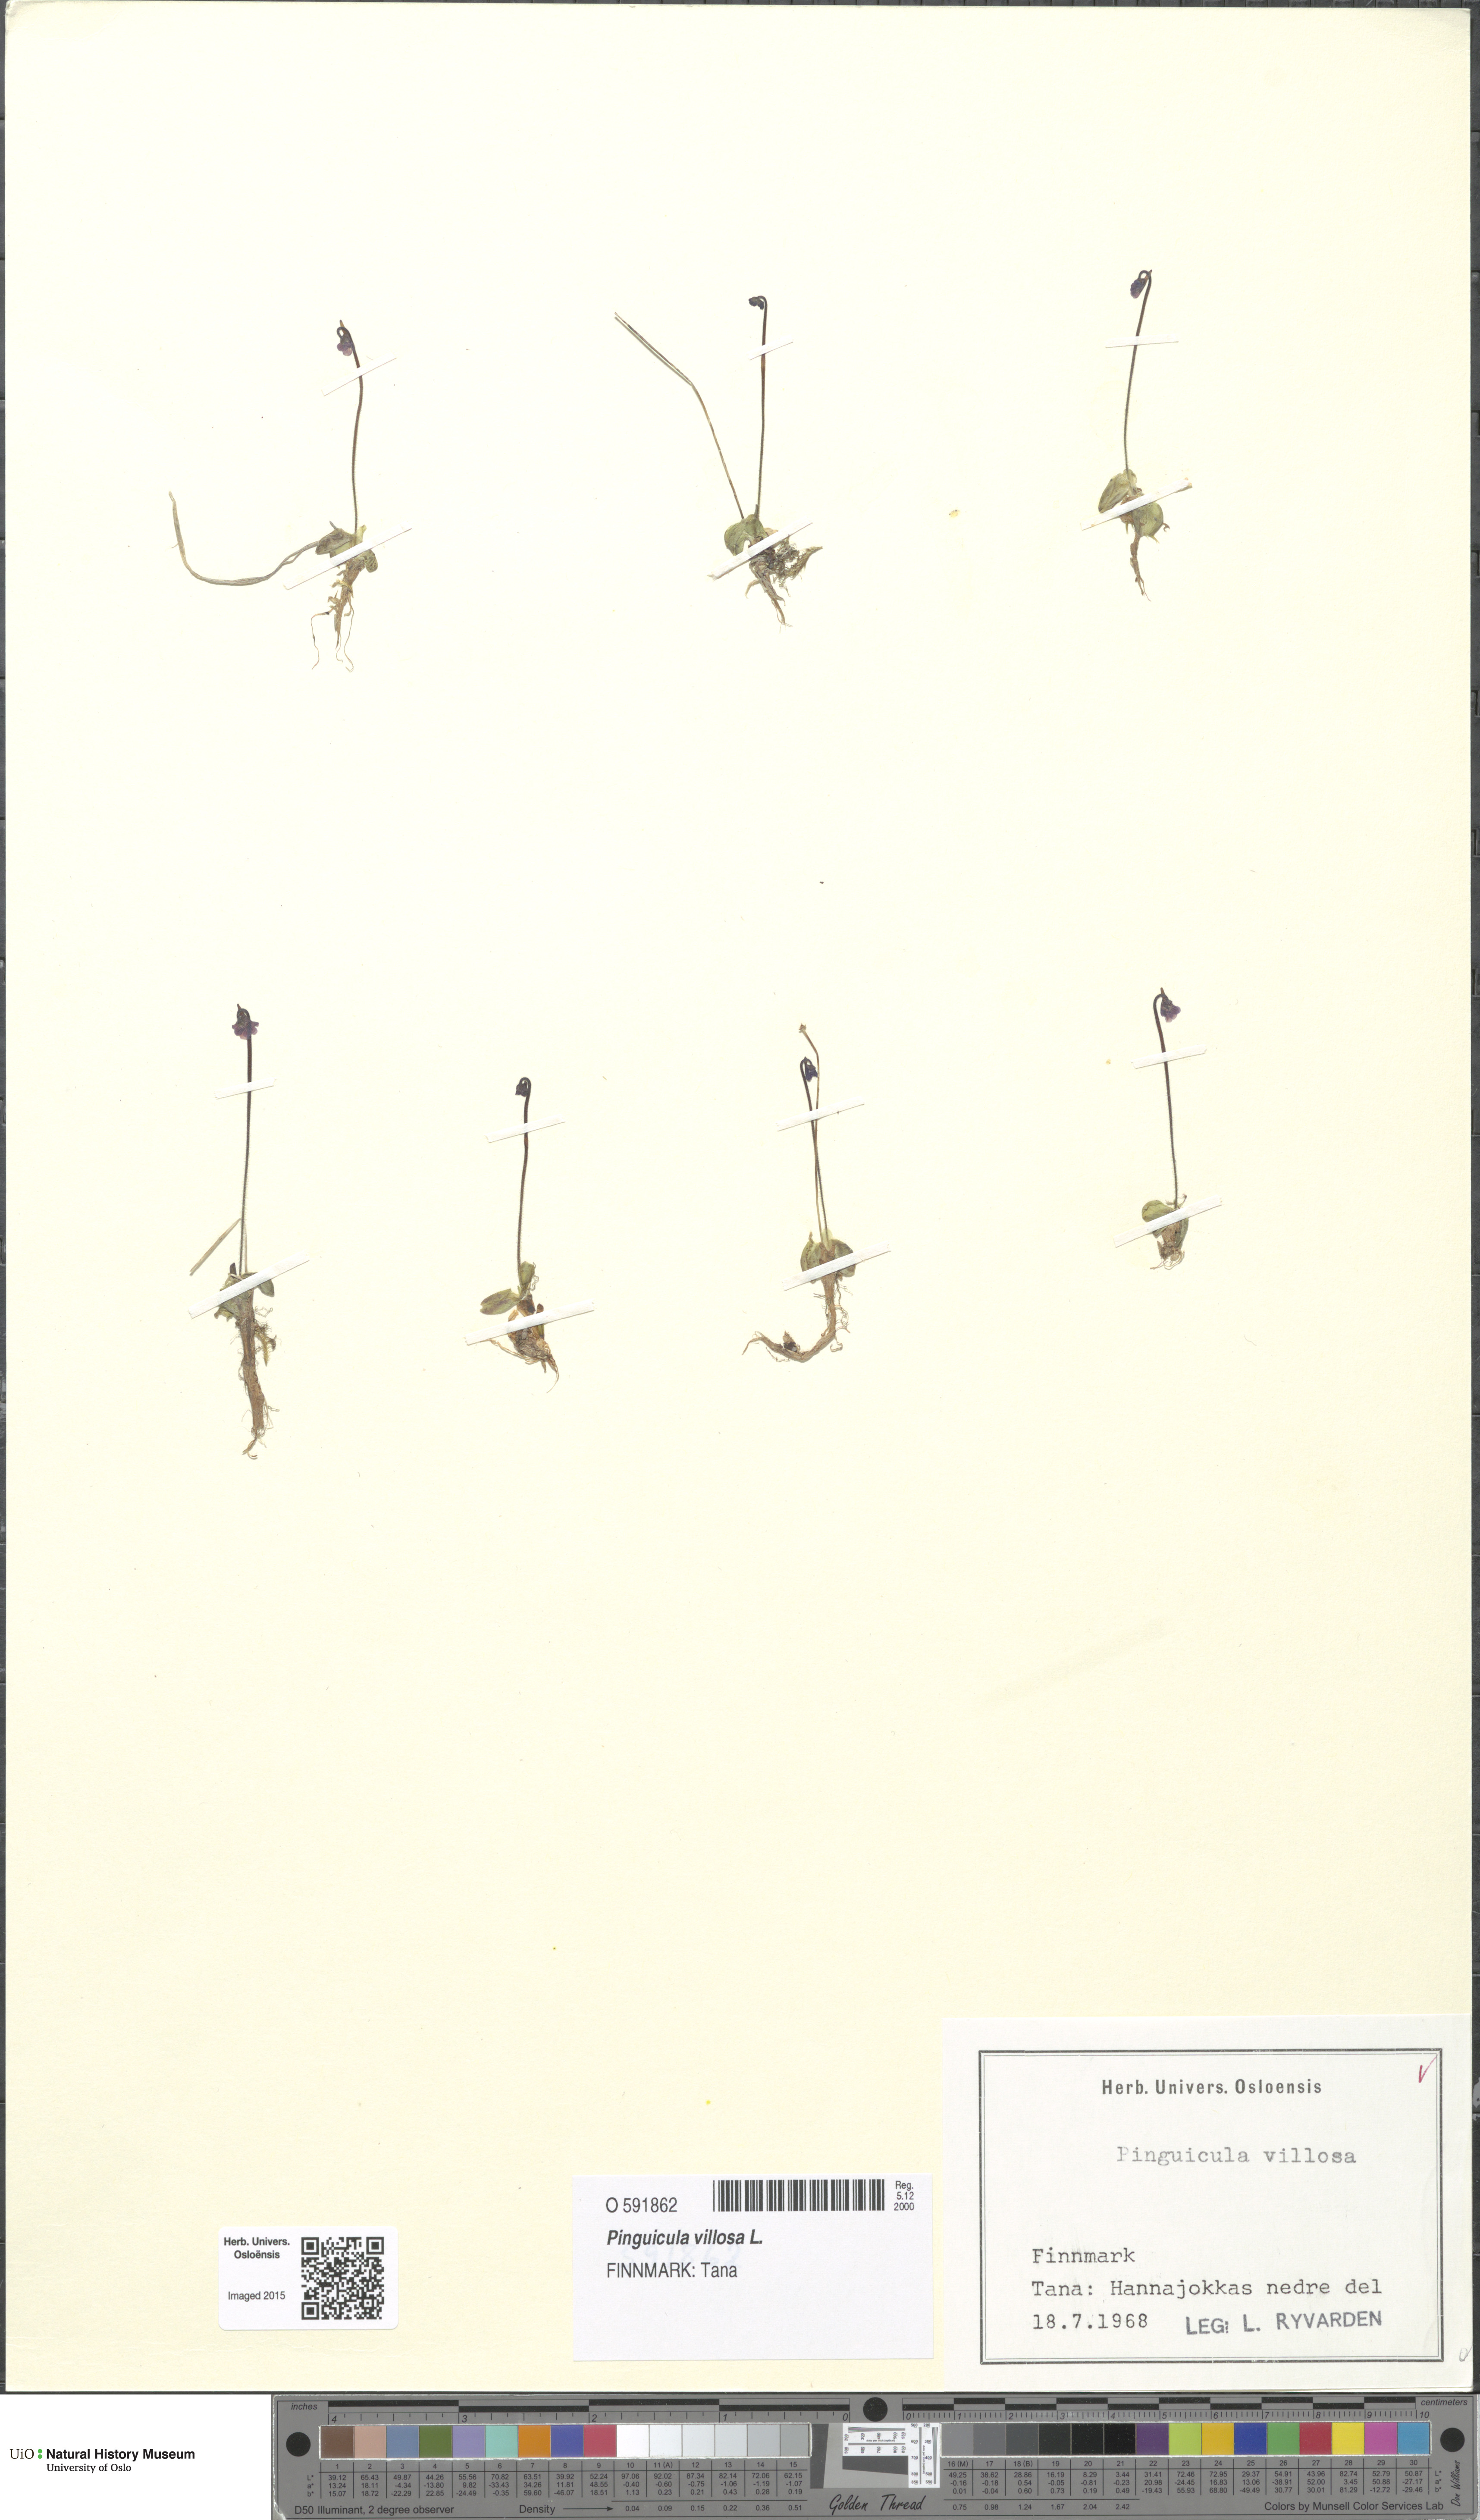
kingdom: Plantae
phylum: Tracheophyta
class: Magnoliopsida
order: Lamiales
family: Lentibulariaceae
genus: Pinguicula
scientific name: Pinguicula villosa
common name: Hairy butterwort
